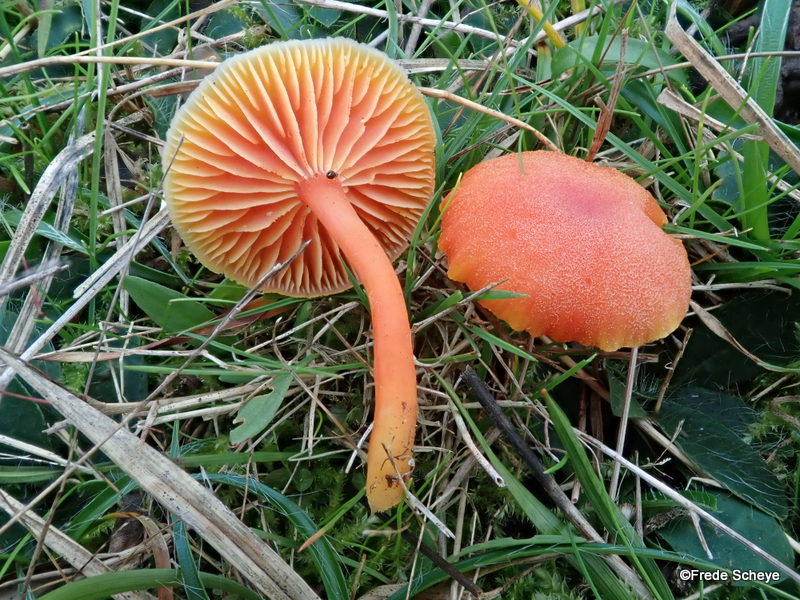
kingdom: Fungi
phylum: Basidiomycota
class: Agaricomycetes
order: Agaricales
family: Hygrophoraceae
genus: Hygrocybe
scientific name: Hygrocybe miniata
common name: mønje-vokshat
